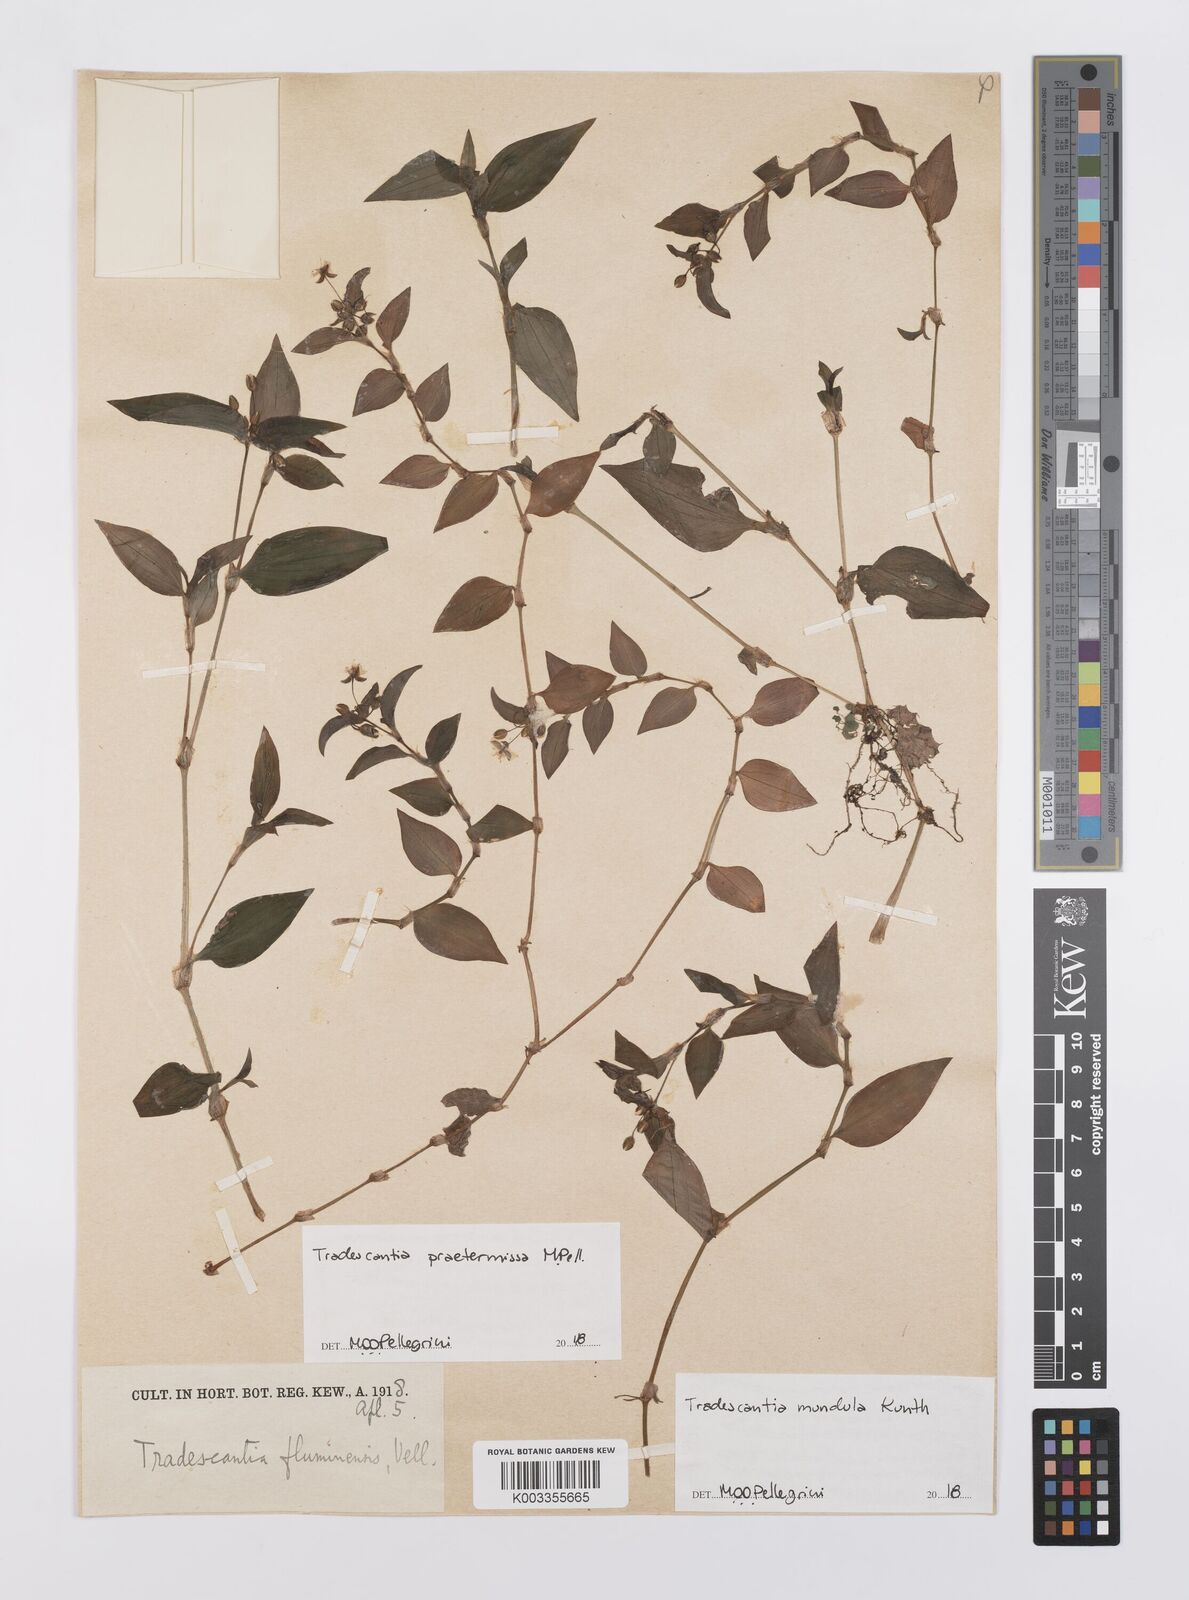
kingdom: Plantae
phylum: Tracheophyta
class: Liliopsida
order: Commelinales
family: Commelinaceae
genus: Tradescantia
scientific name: Tradescantia mundula
